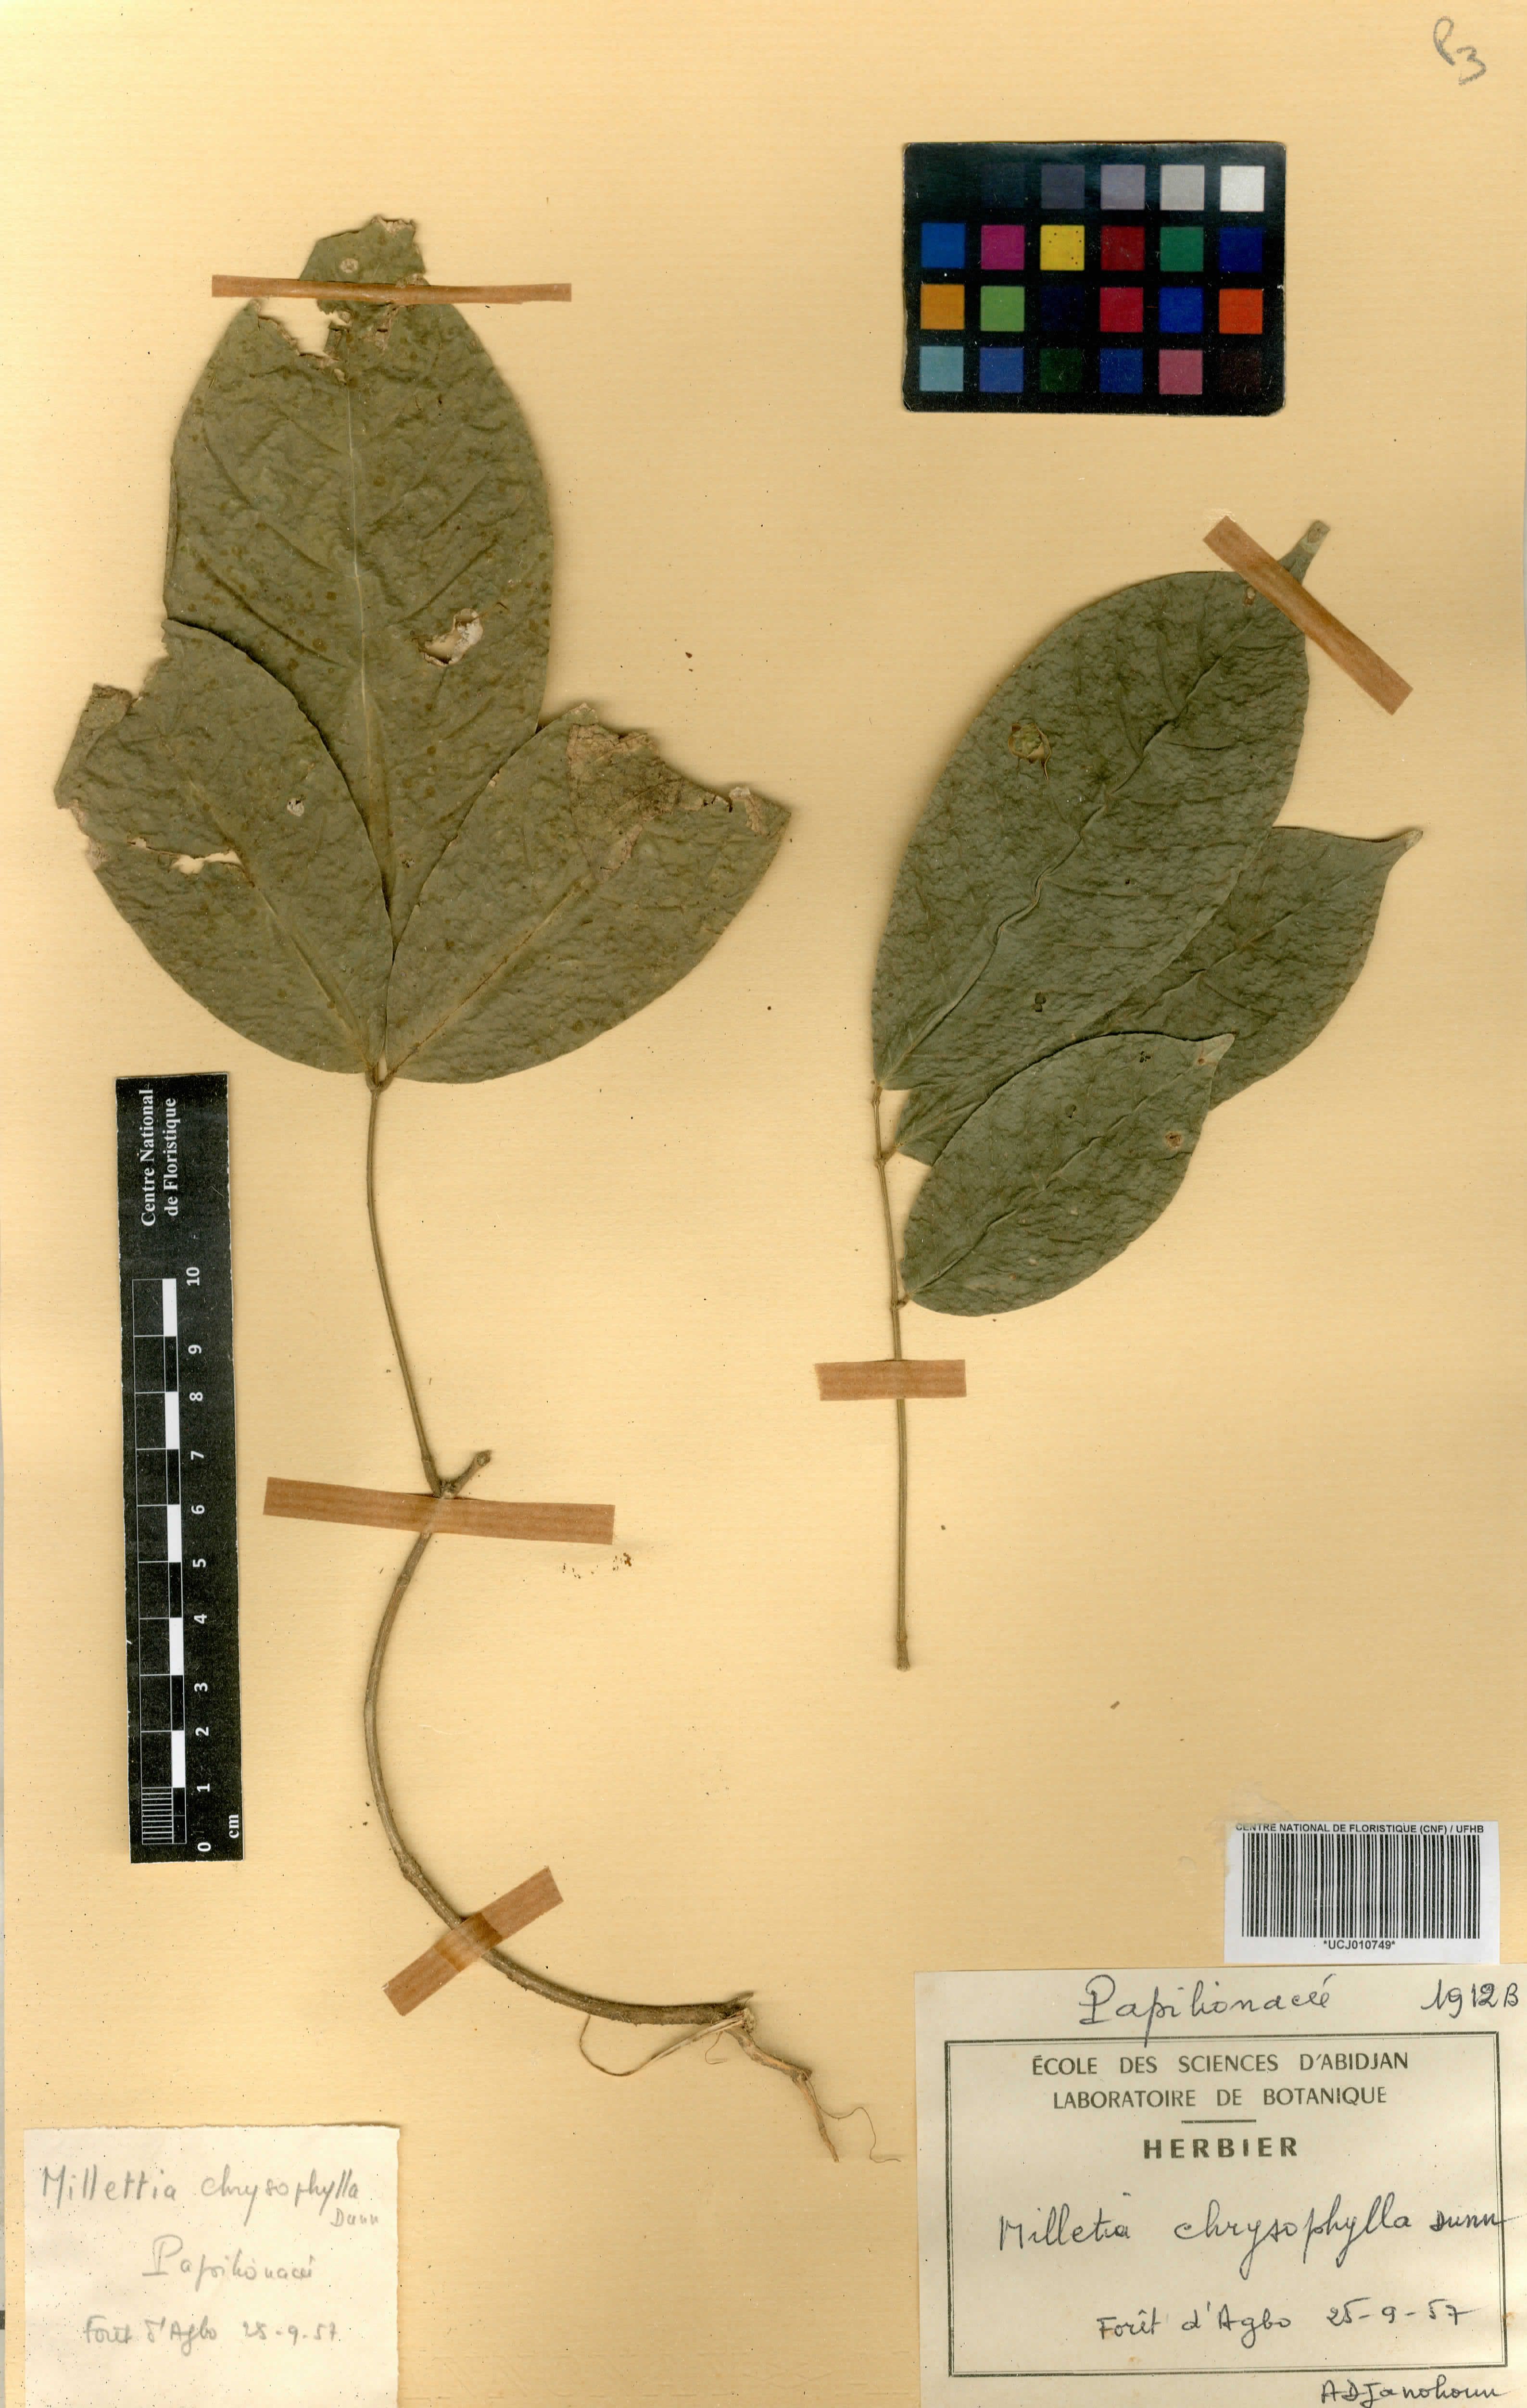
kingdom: Plantae
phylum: Tracheophyta
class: Magnoliopsida
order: Fabales
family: Fabaceae
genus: Millettia
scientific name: Millettia chrysophylla
